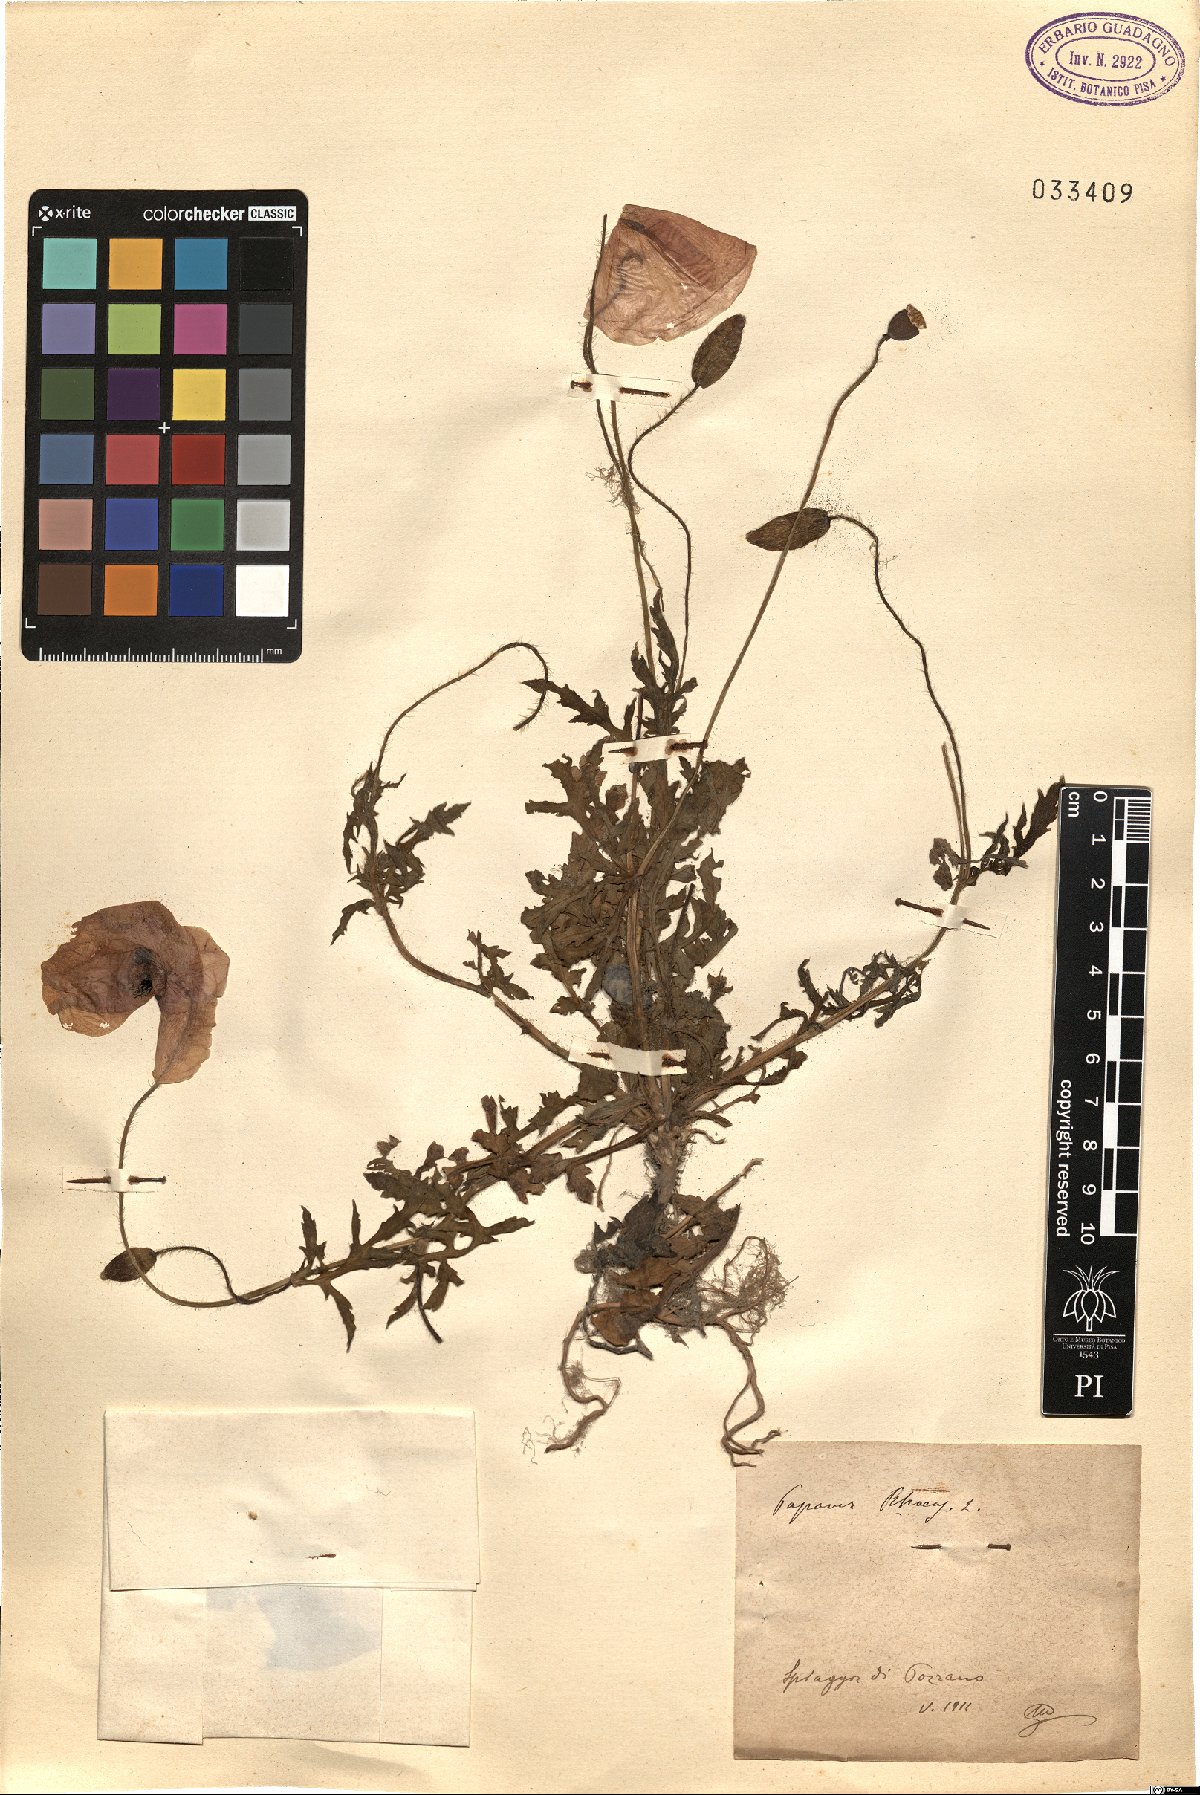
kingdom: Plantae
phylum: Tracheophyta
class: Magnoliopsida
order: Ranunculales
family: Papaveraceae
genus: Papaver
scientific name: Papaver rhoeas
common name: Corn poppy
